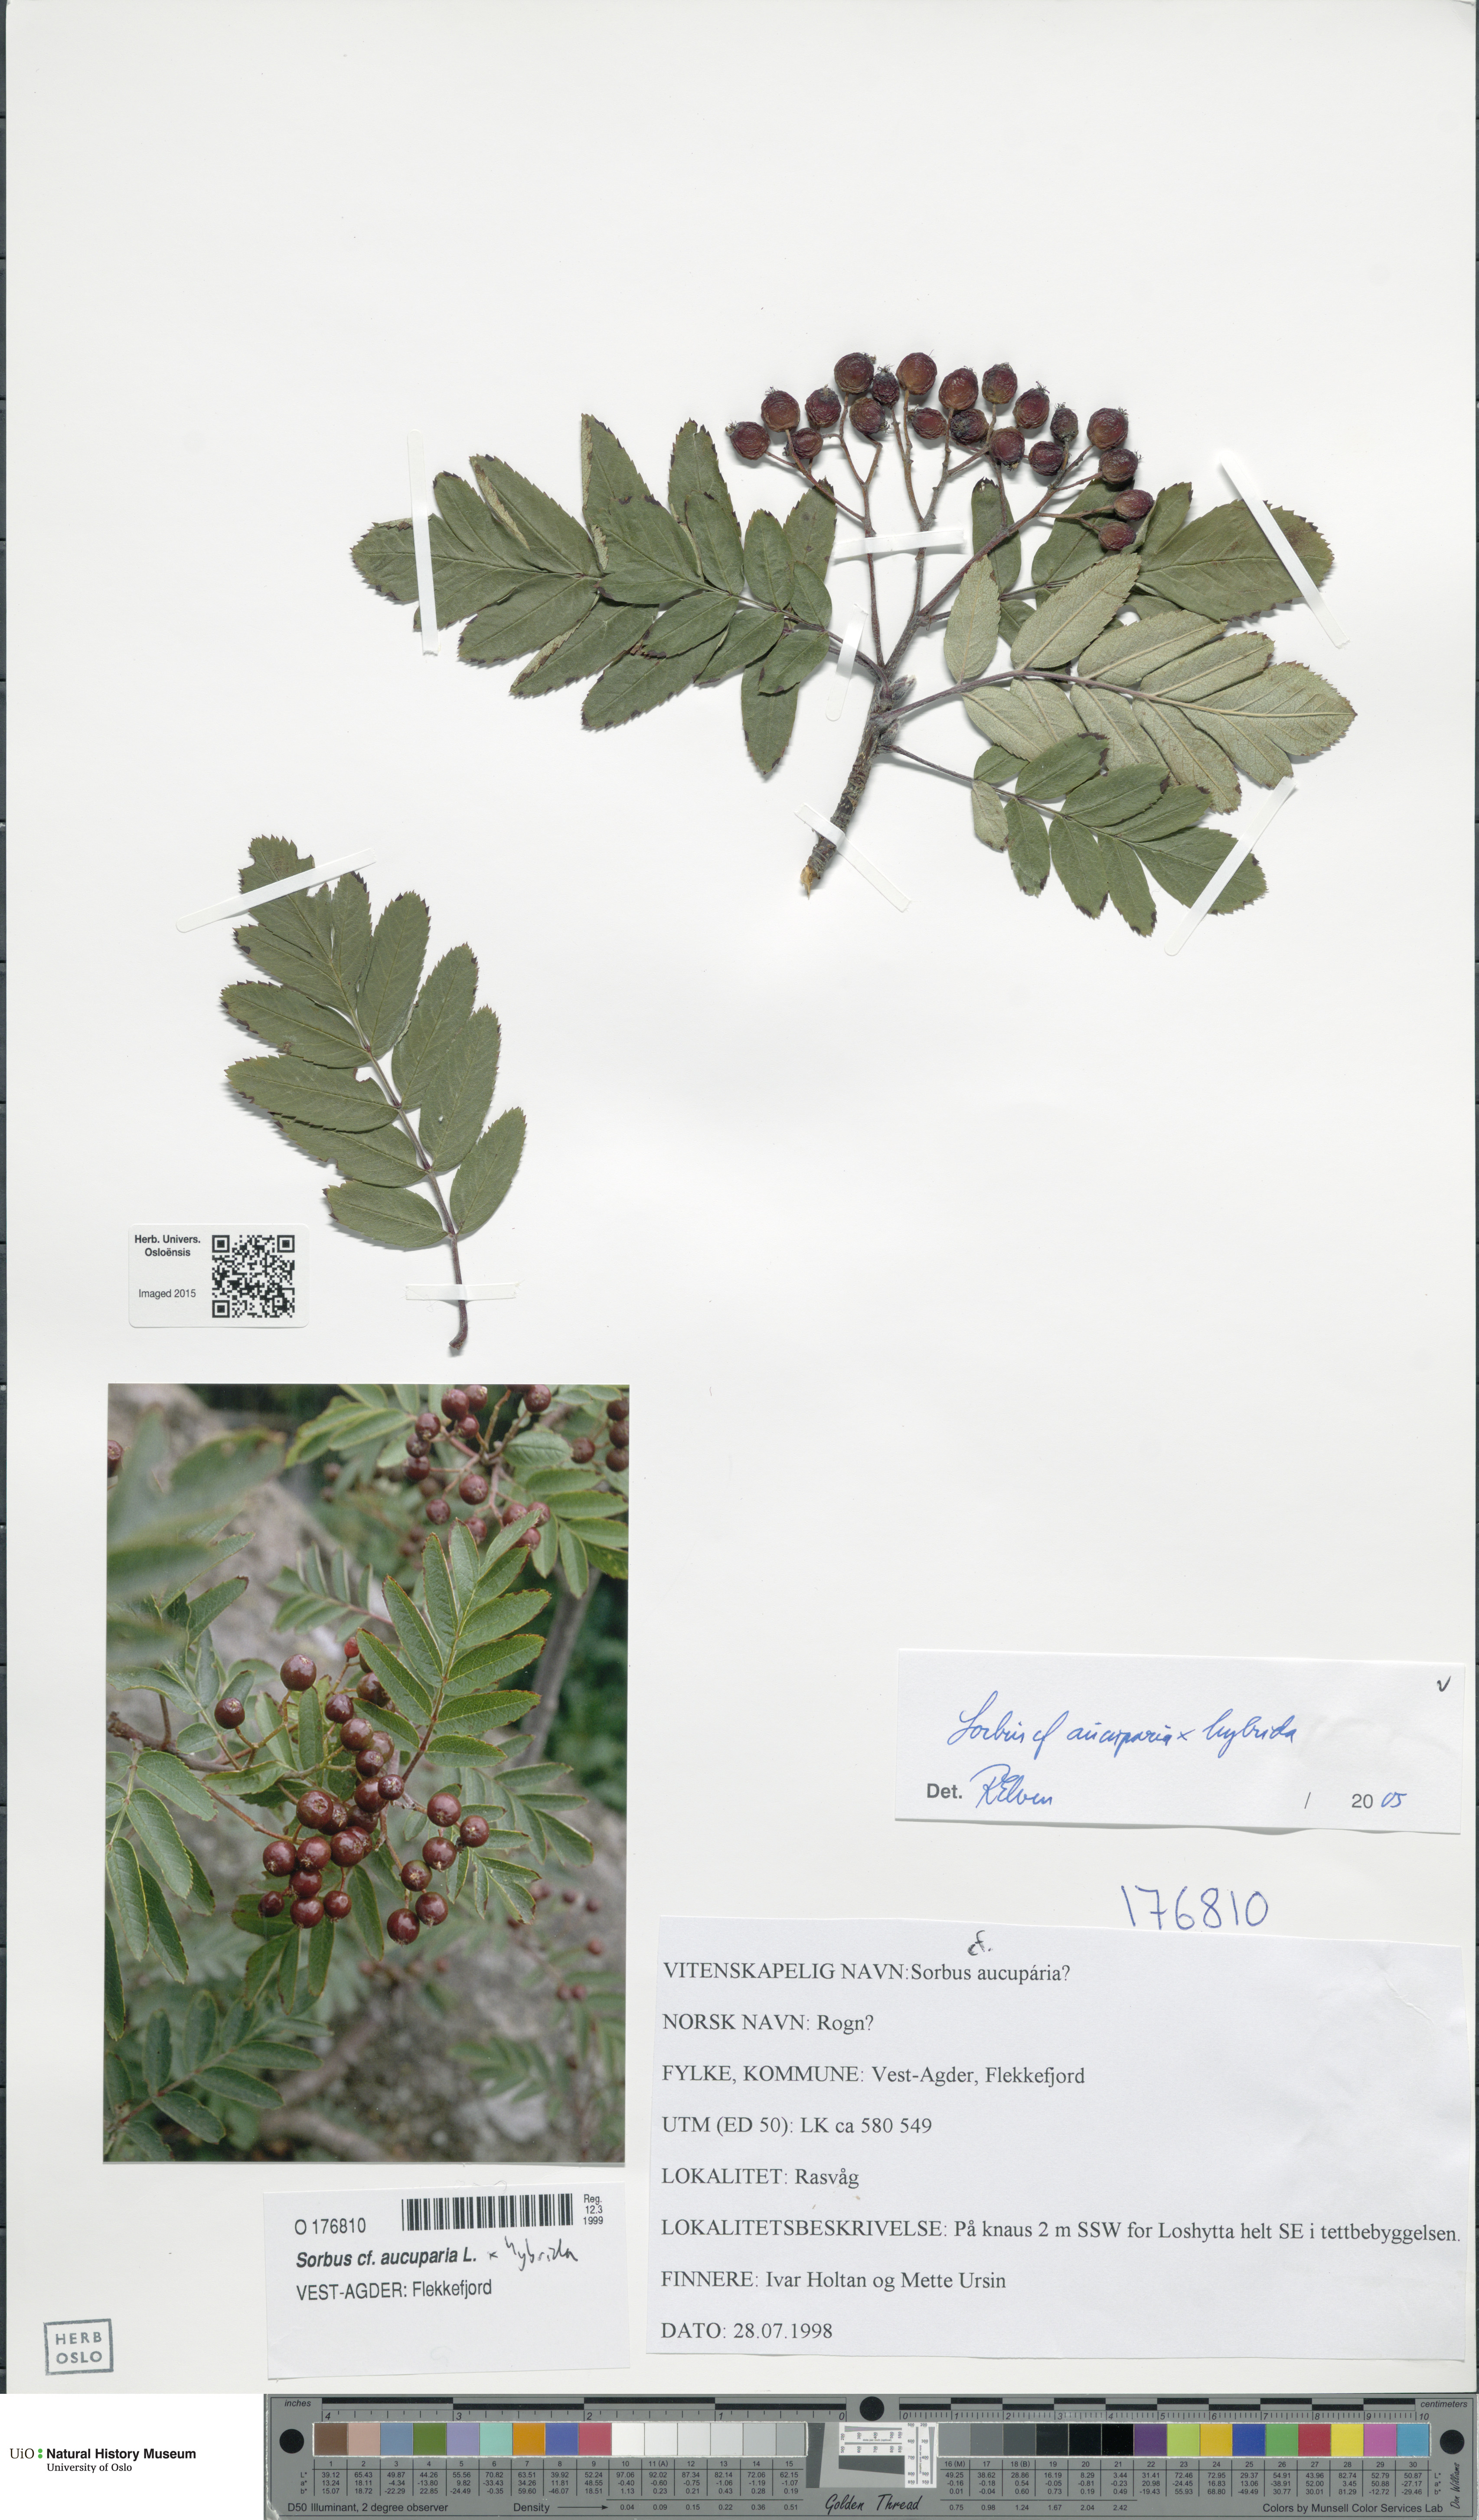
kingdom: Plantae
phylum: Tracheophyta
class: Magnoliopsida
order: Rosales
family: Rosaceae
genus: Hedlundia
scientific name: Hedlundia
